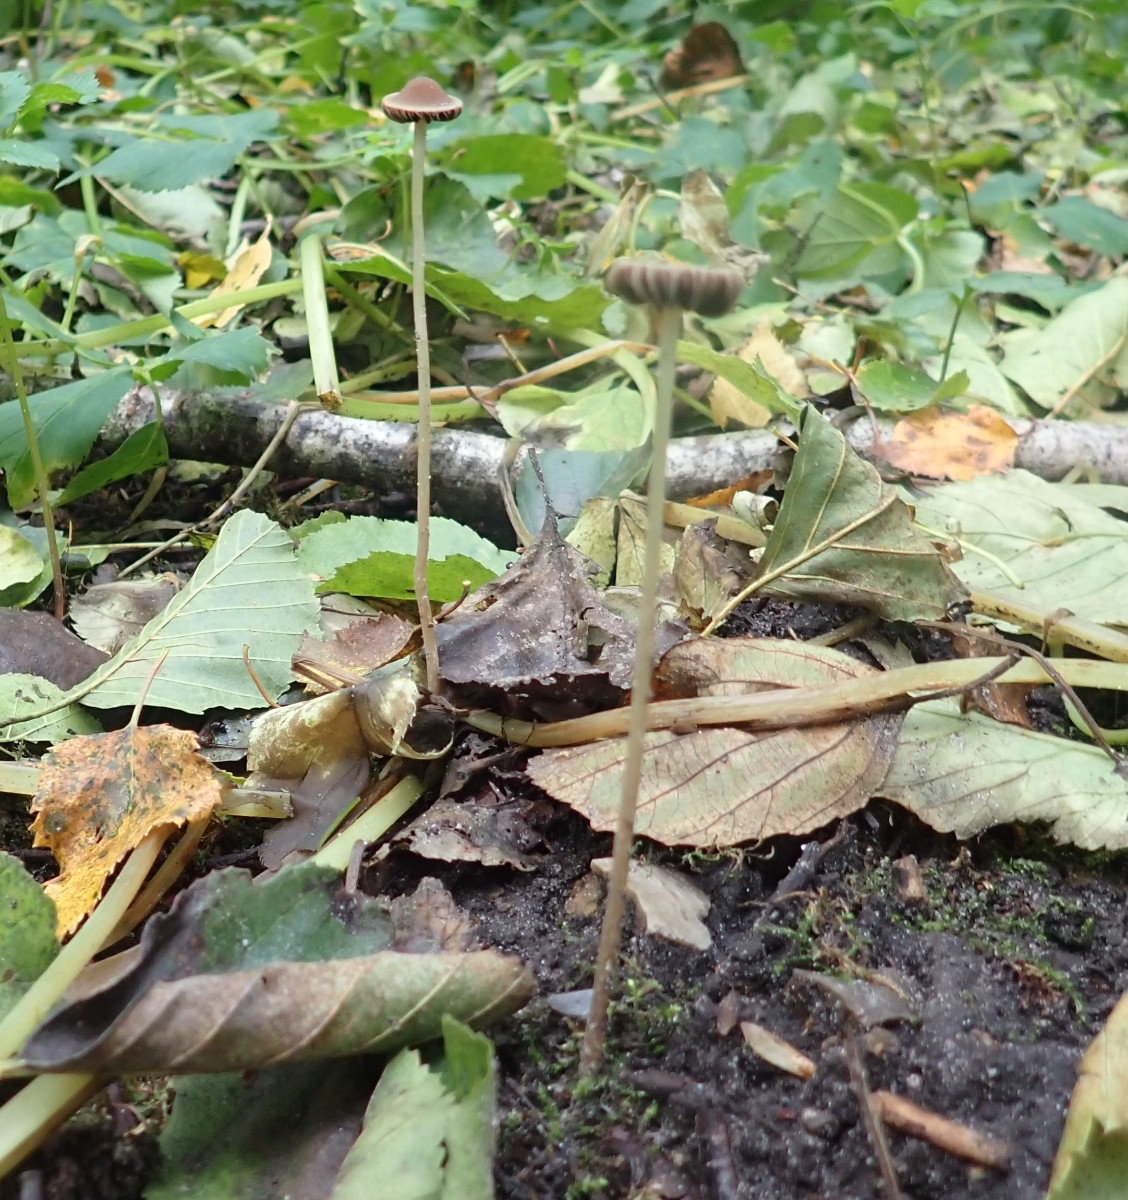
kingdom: Fungi
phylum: Basidiomycota
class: Agaricomycetes
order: Agaricales
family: Psathyrellaceae
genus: Psathyrella
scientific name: Psathyrella microrhiza
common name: rod-mørkhat
